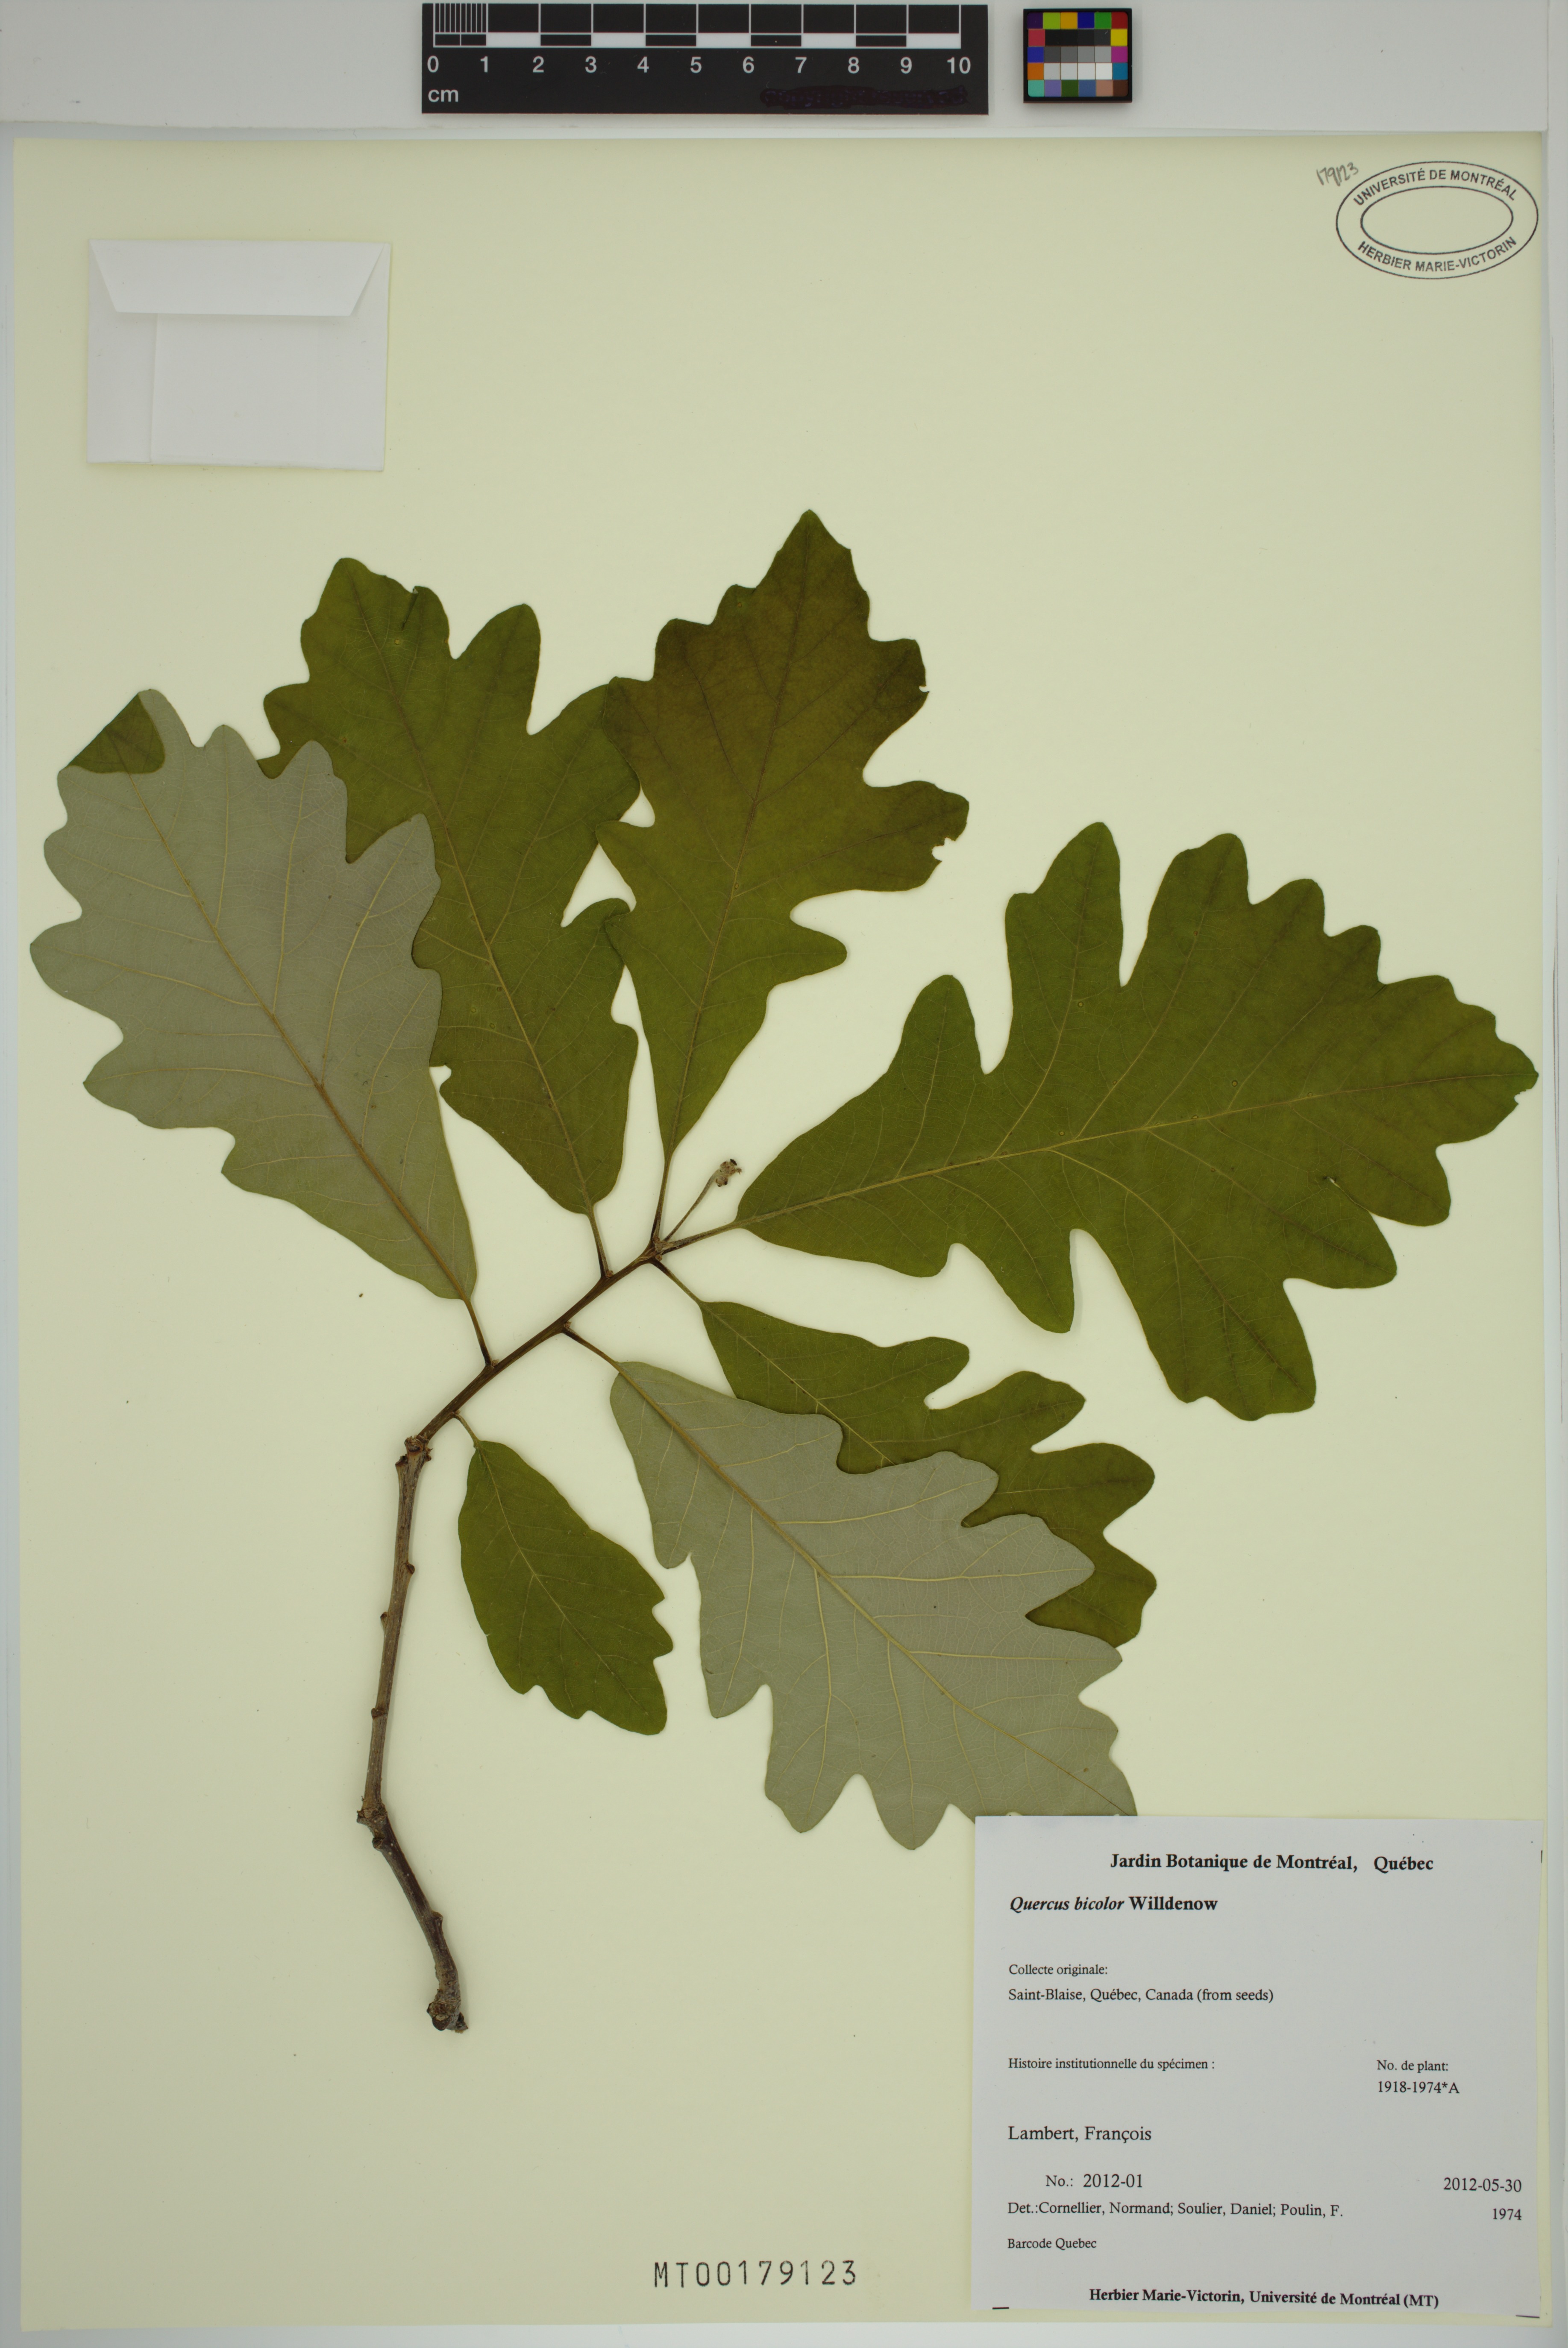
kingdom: Plantae
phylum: Tracheophyta
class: Magnoliopsida
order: Fagales
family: Fagaceae
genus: Quercus
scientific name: Quercus bicolor
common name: Swamp white oak
